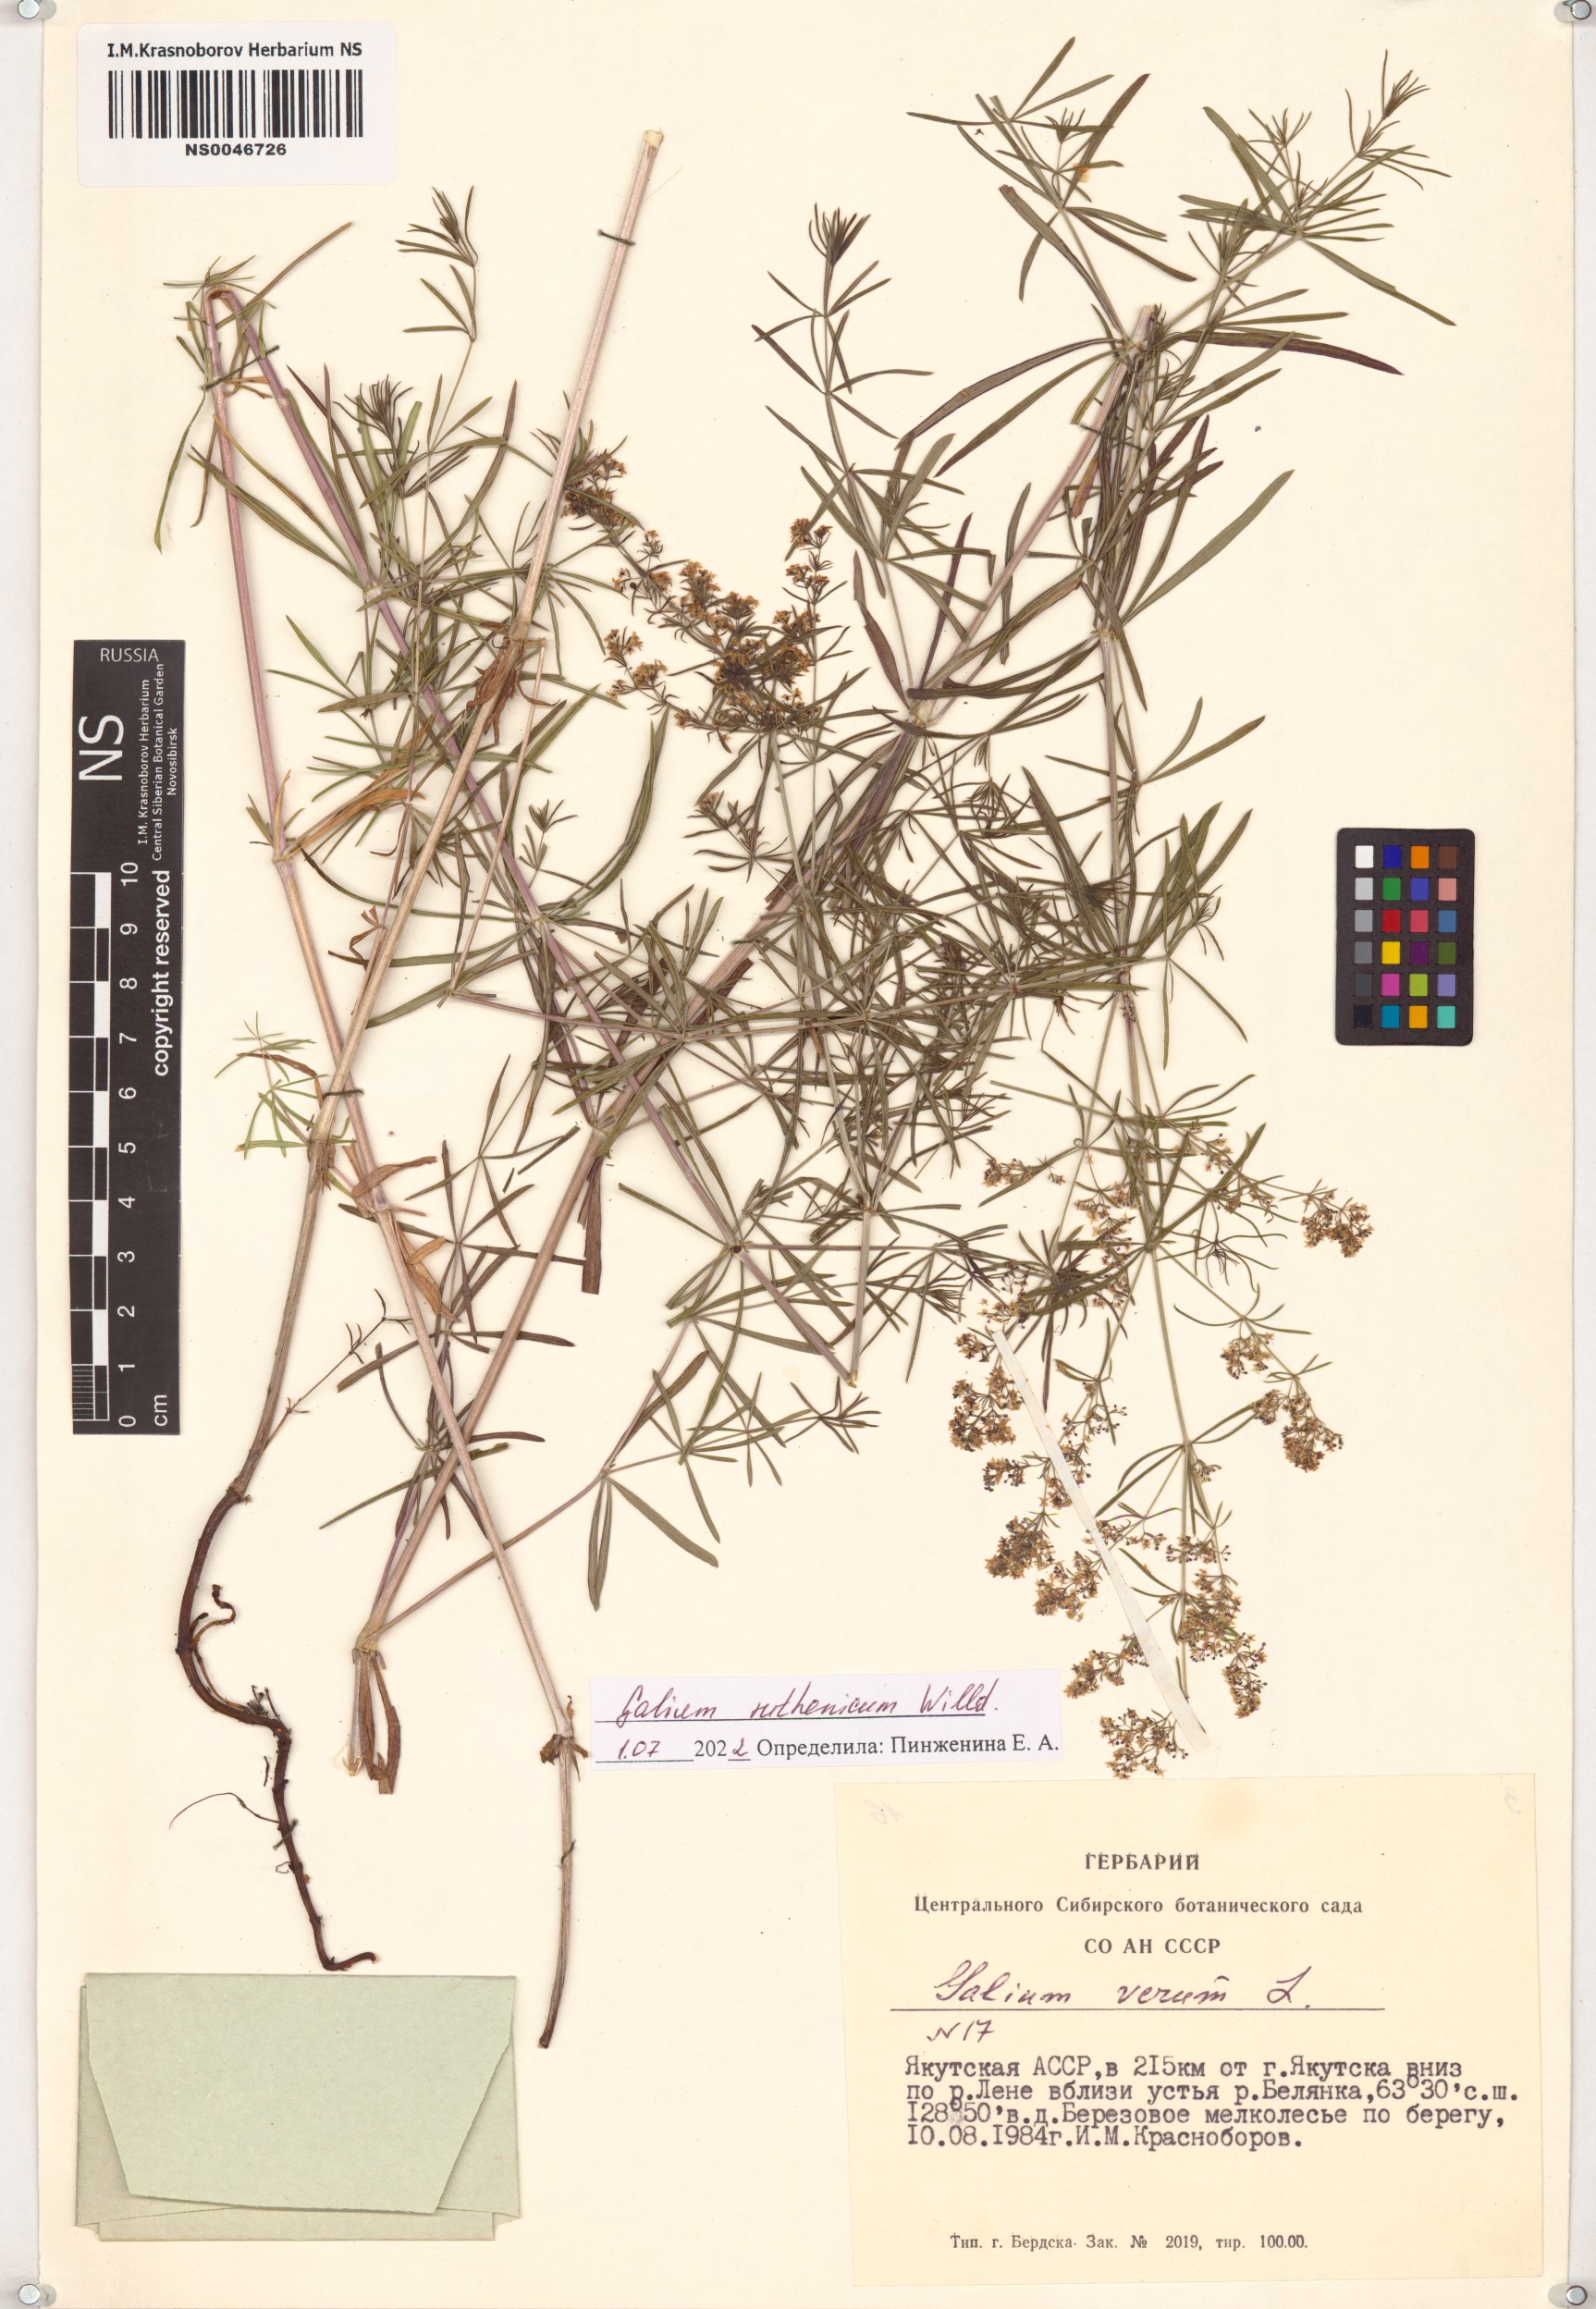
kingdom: Plantae
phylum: Tracheophyta
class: Magnoliopsida
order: Gentianales
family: Rubiaceae
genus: Galium
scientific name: Galium verum
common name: Lady's bedstraw
